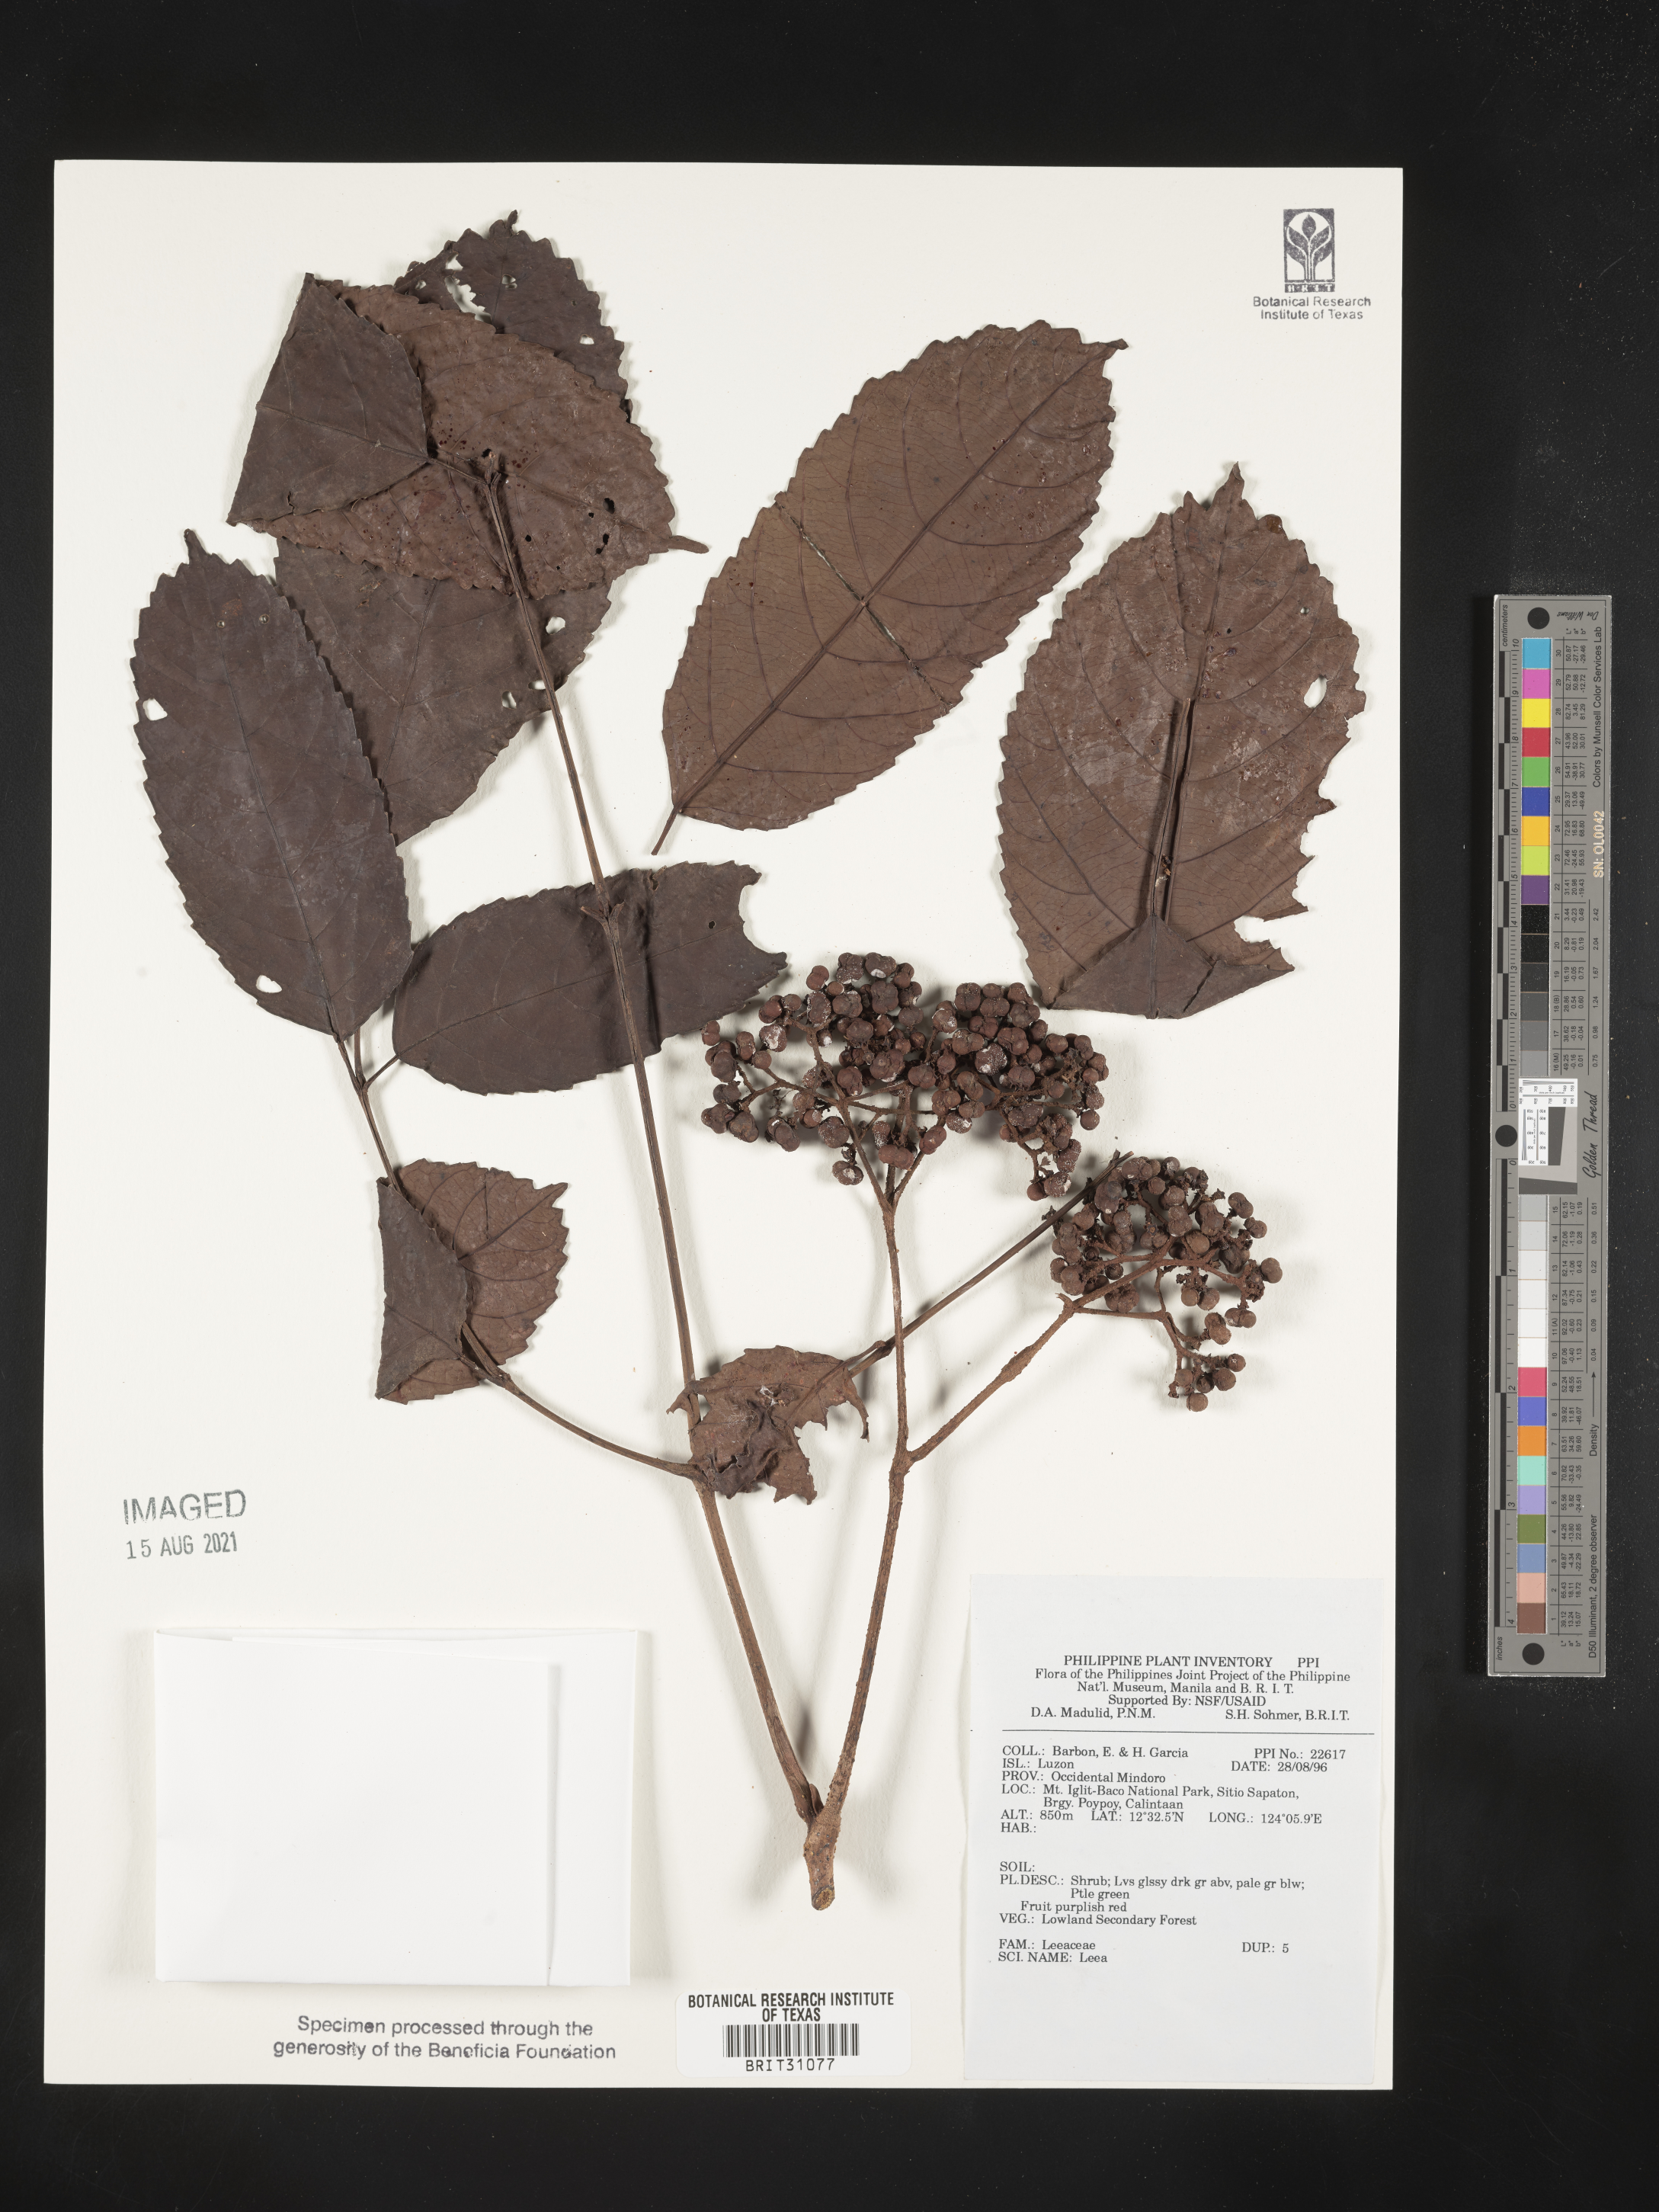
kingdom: Plantae
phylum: Tracheophyta
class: Magnoliopsida
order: Vitales
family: Vitaceae
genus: Leea
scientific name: Leea
